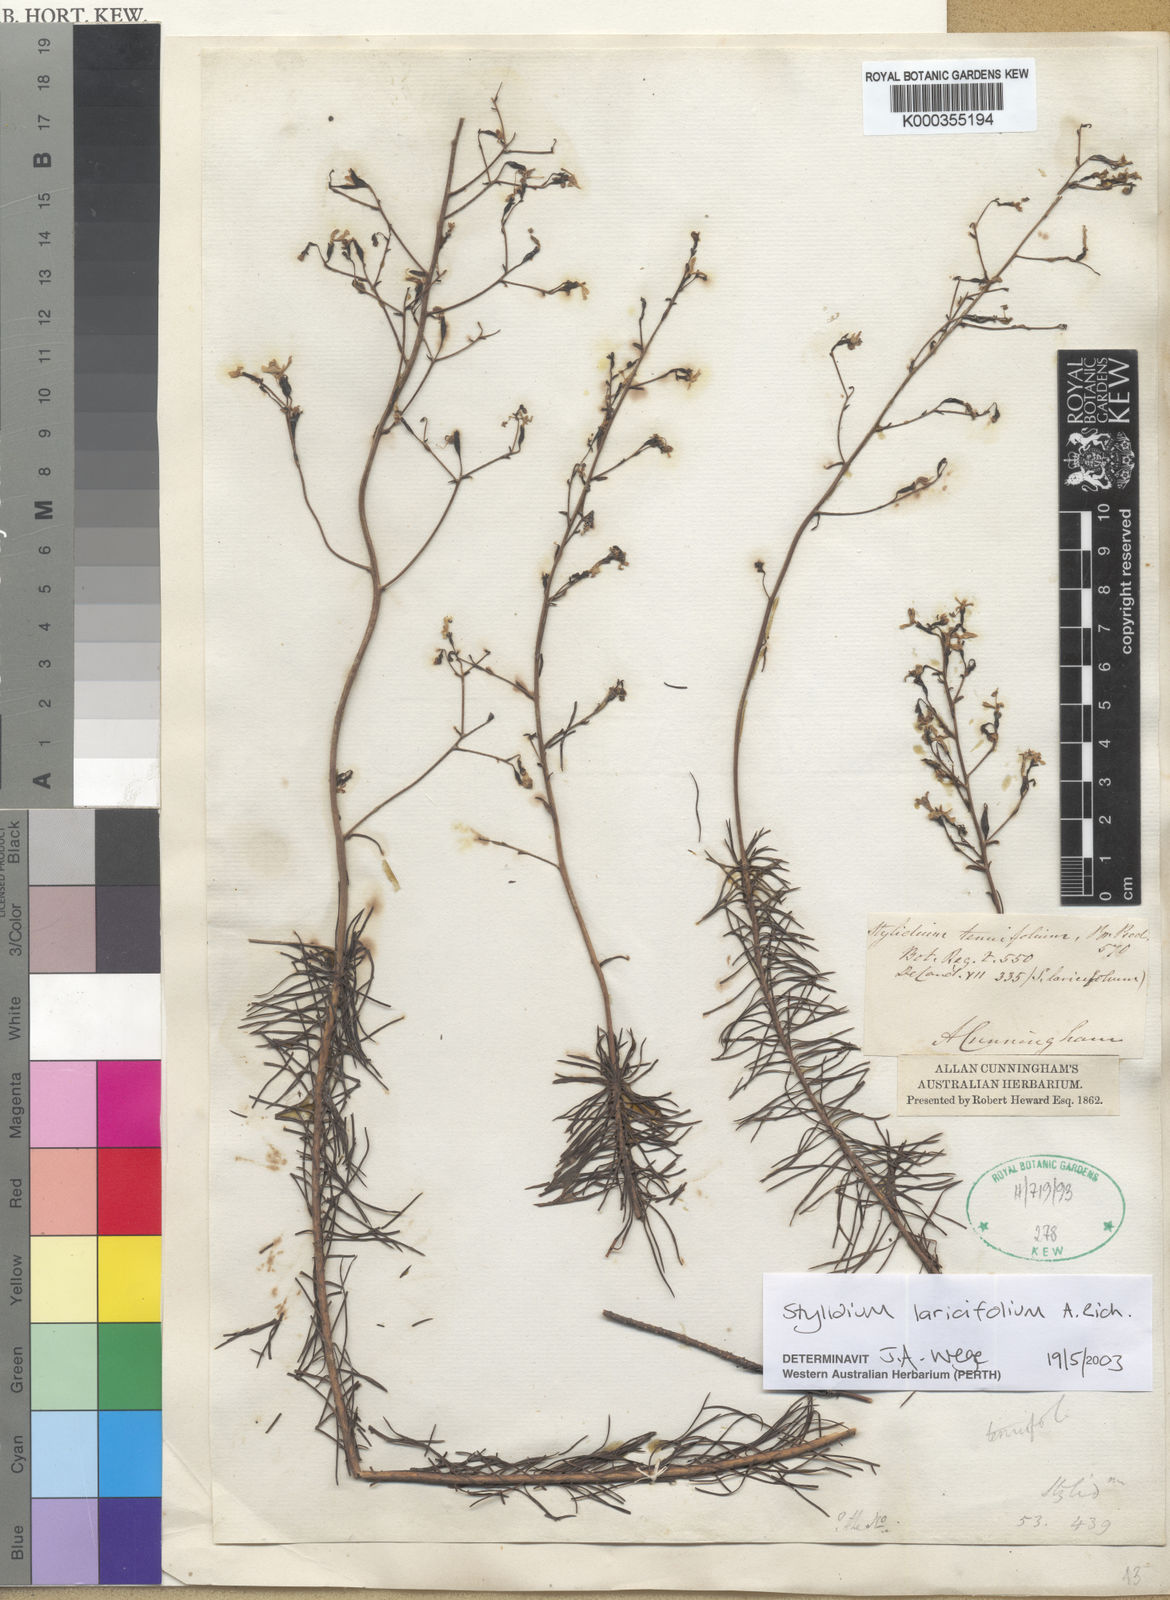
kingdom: Plantae
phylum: Tracheophyta
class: Magnoliopsida
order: Asterales
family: Stylidiaceae
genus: Stylidium
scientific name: Stylidium laricifolium
